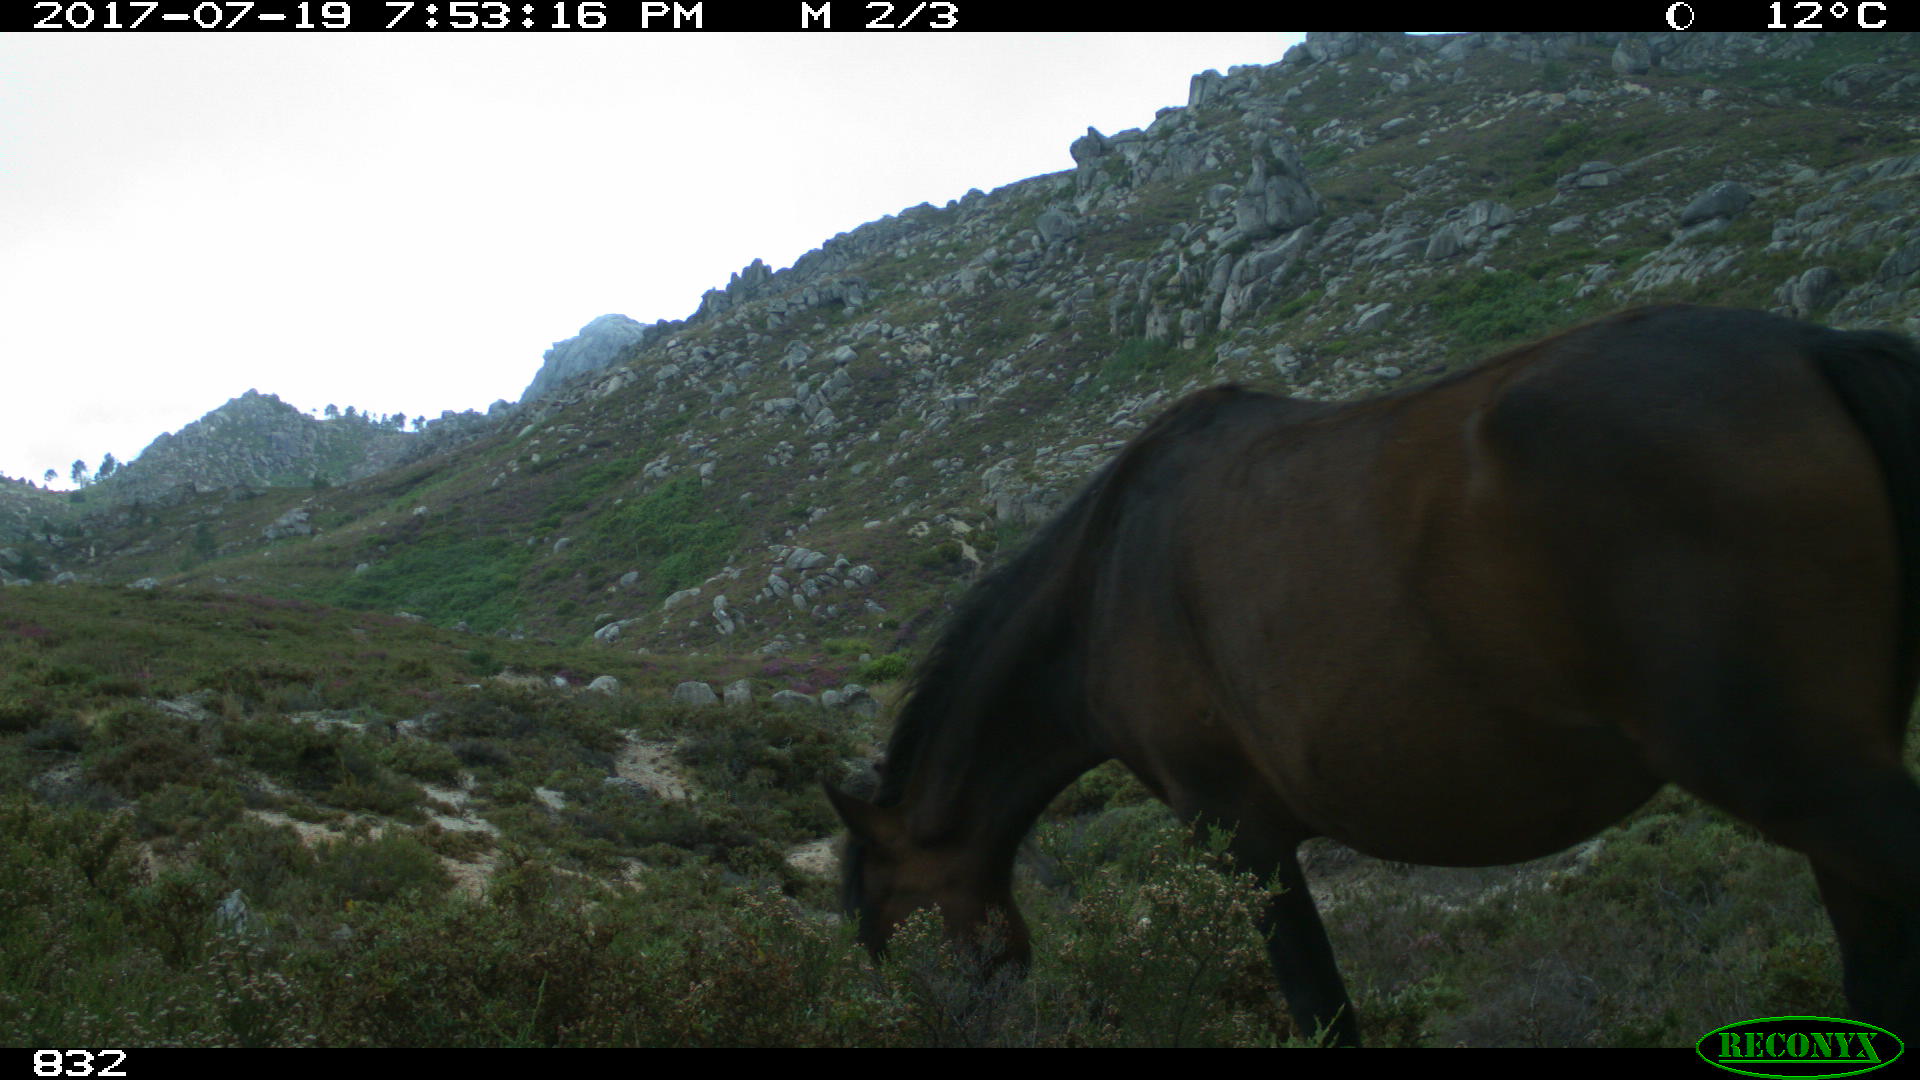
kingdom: Animalia
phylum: Chordata
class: Mammalia
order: Perissodactyla
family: Equidae
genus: Equus
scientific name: Equus caballus
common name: Horse
